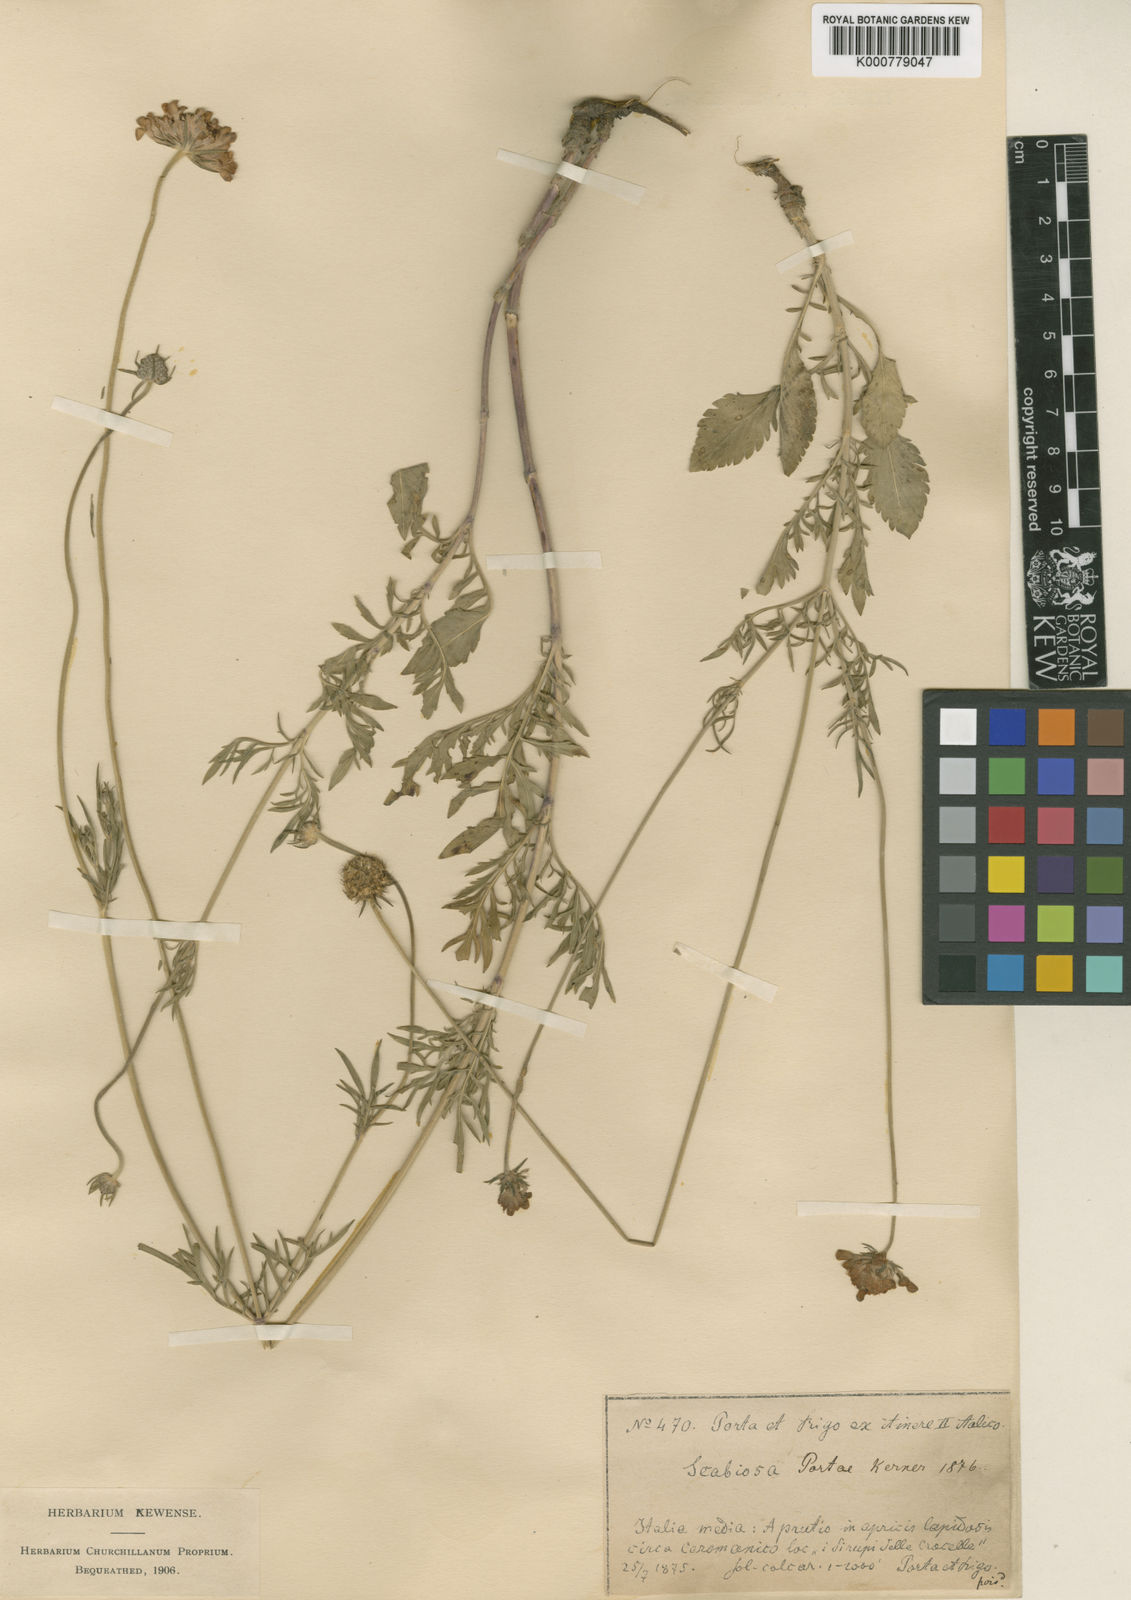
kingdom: Plantae
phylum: Tracheophyta
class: Magnoliopsida
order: Dipsacales
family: Caprifoliaceae
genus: Scabiosa
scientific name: Scabiosa columbaria
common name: Small scabious
